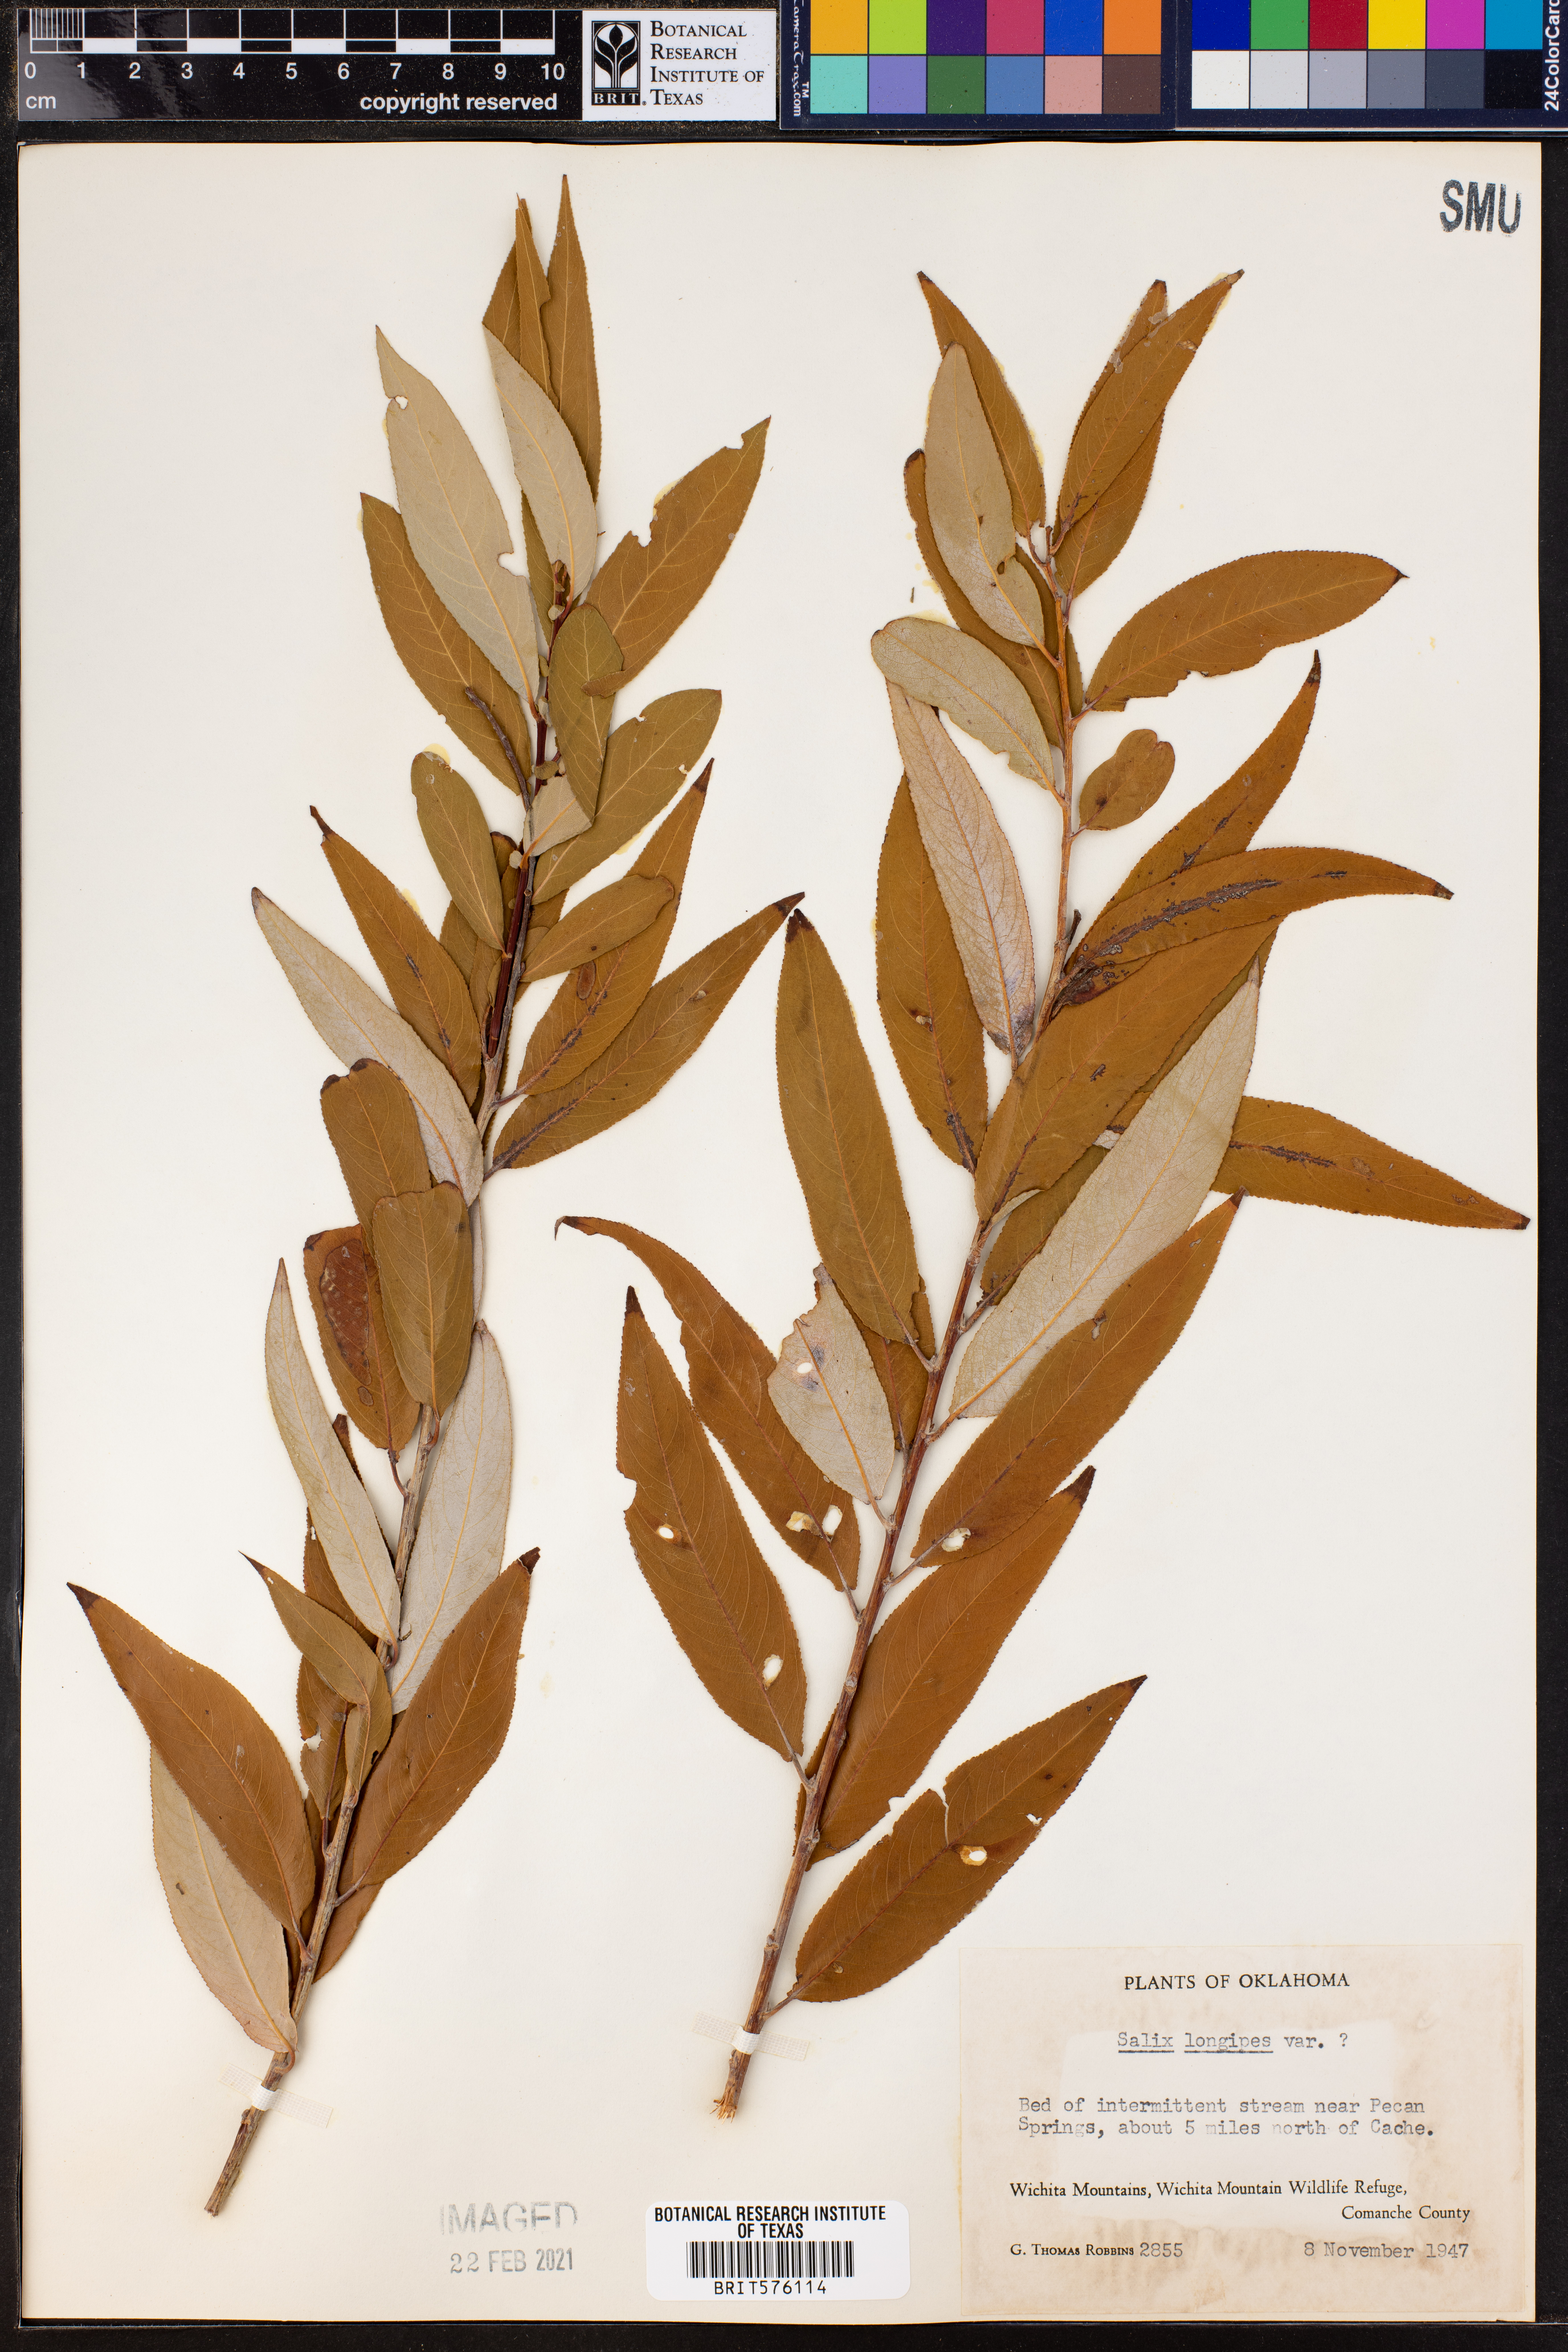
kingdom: Plantae
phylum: Tracheophyta
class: Magnoliopsida
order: Malpighiales
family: Salicaceae
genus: Salix
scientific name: Salix fruticulosa
